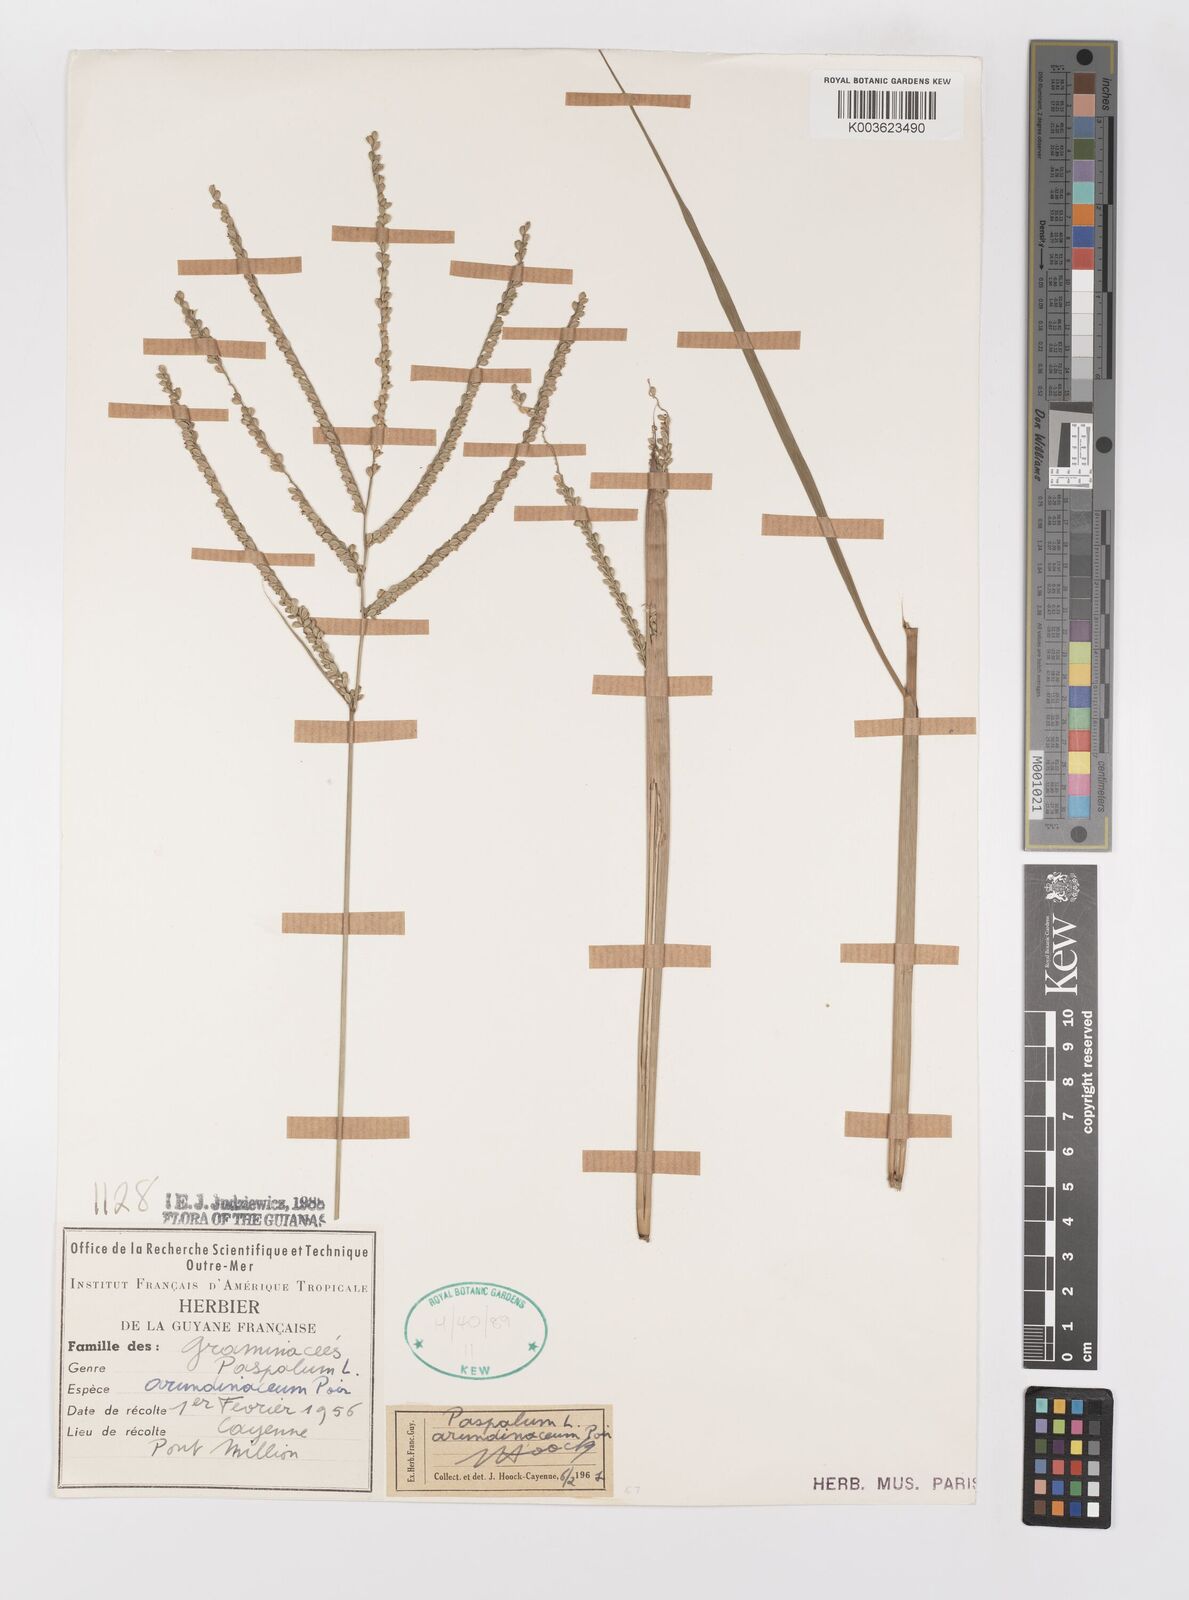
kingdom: Plantae
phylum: Tracheophyta
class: Liliopsida
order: Poales
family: Poaceae
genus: Paspalum
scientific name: Paspalum arundinaceum
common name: Thick ditch crowngrass
